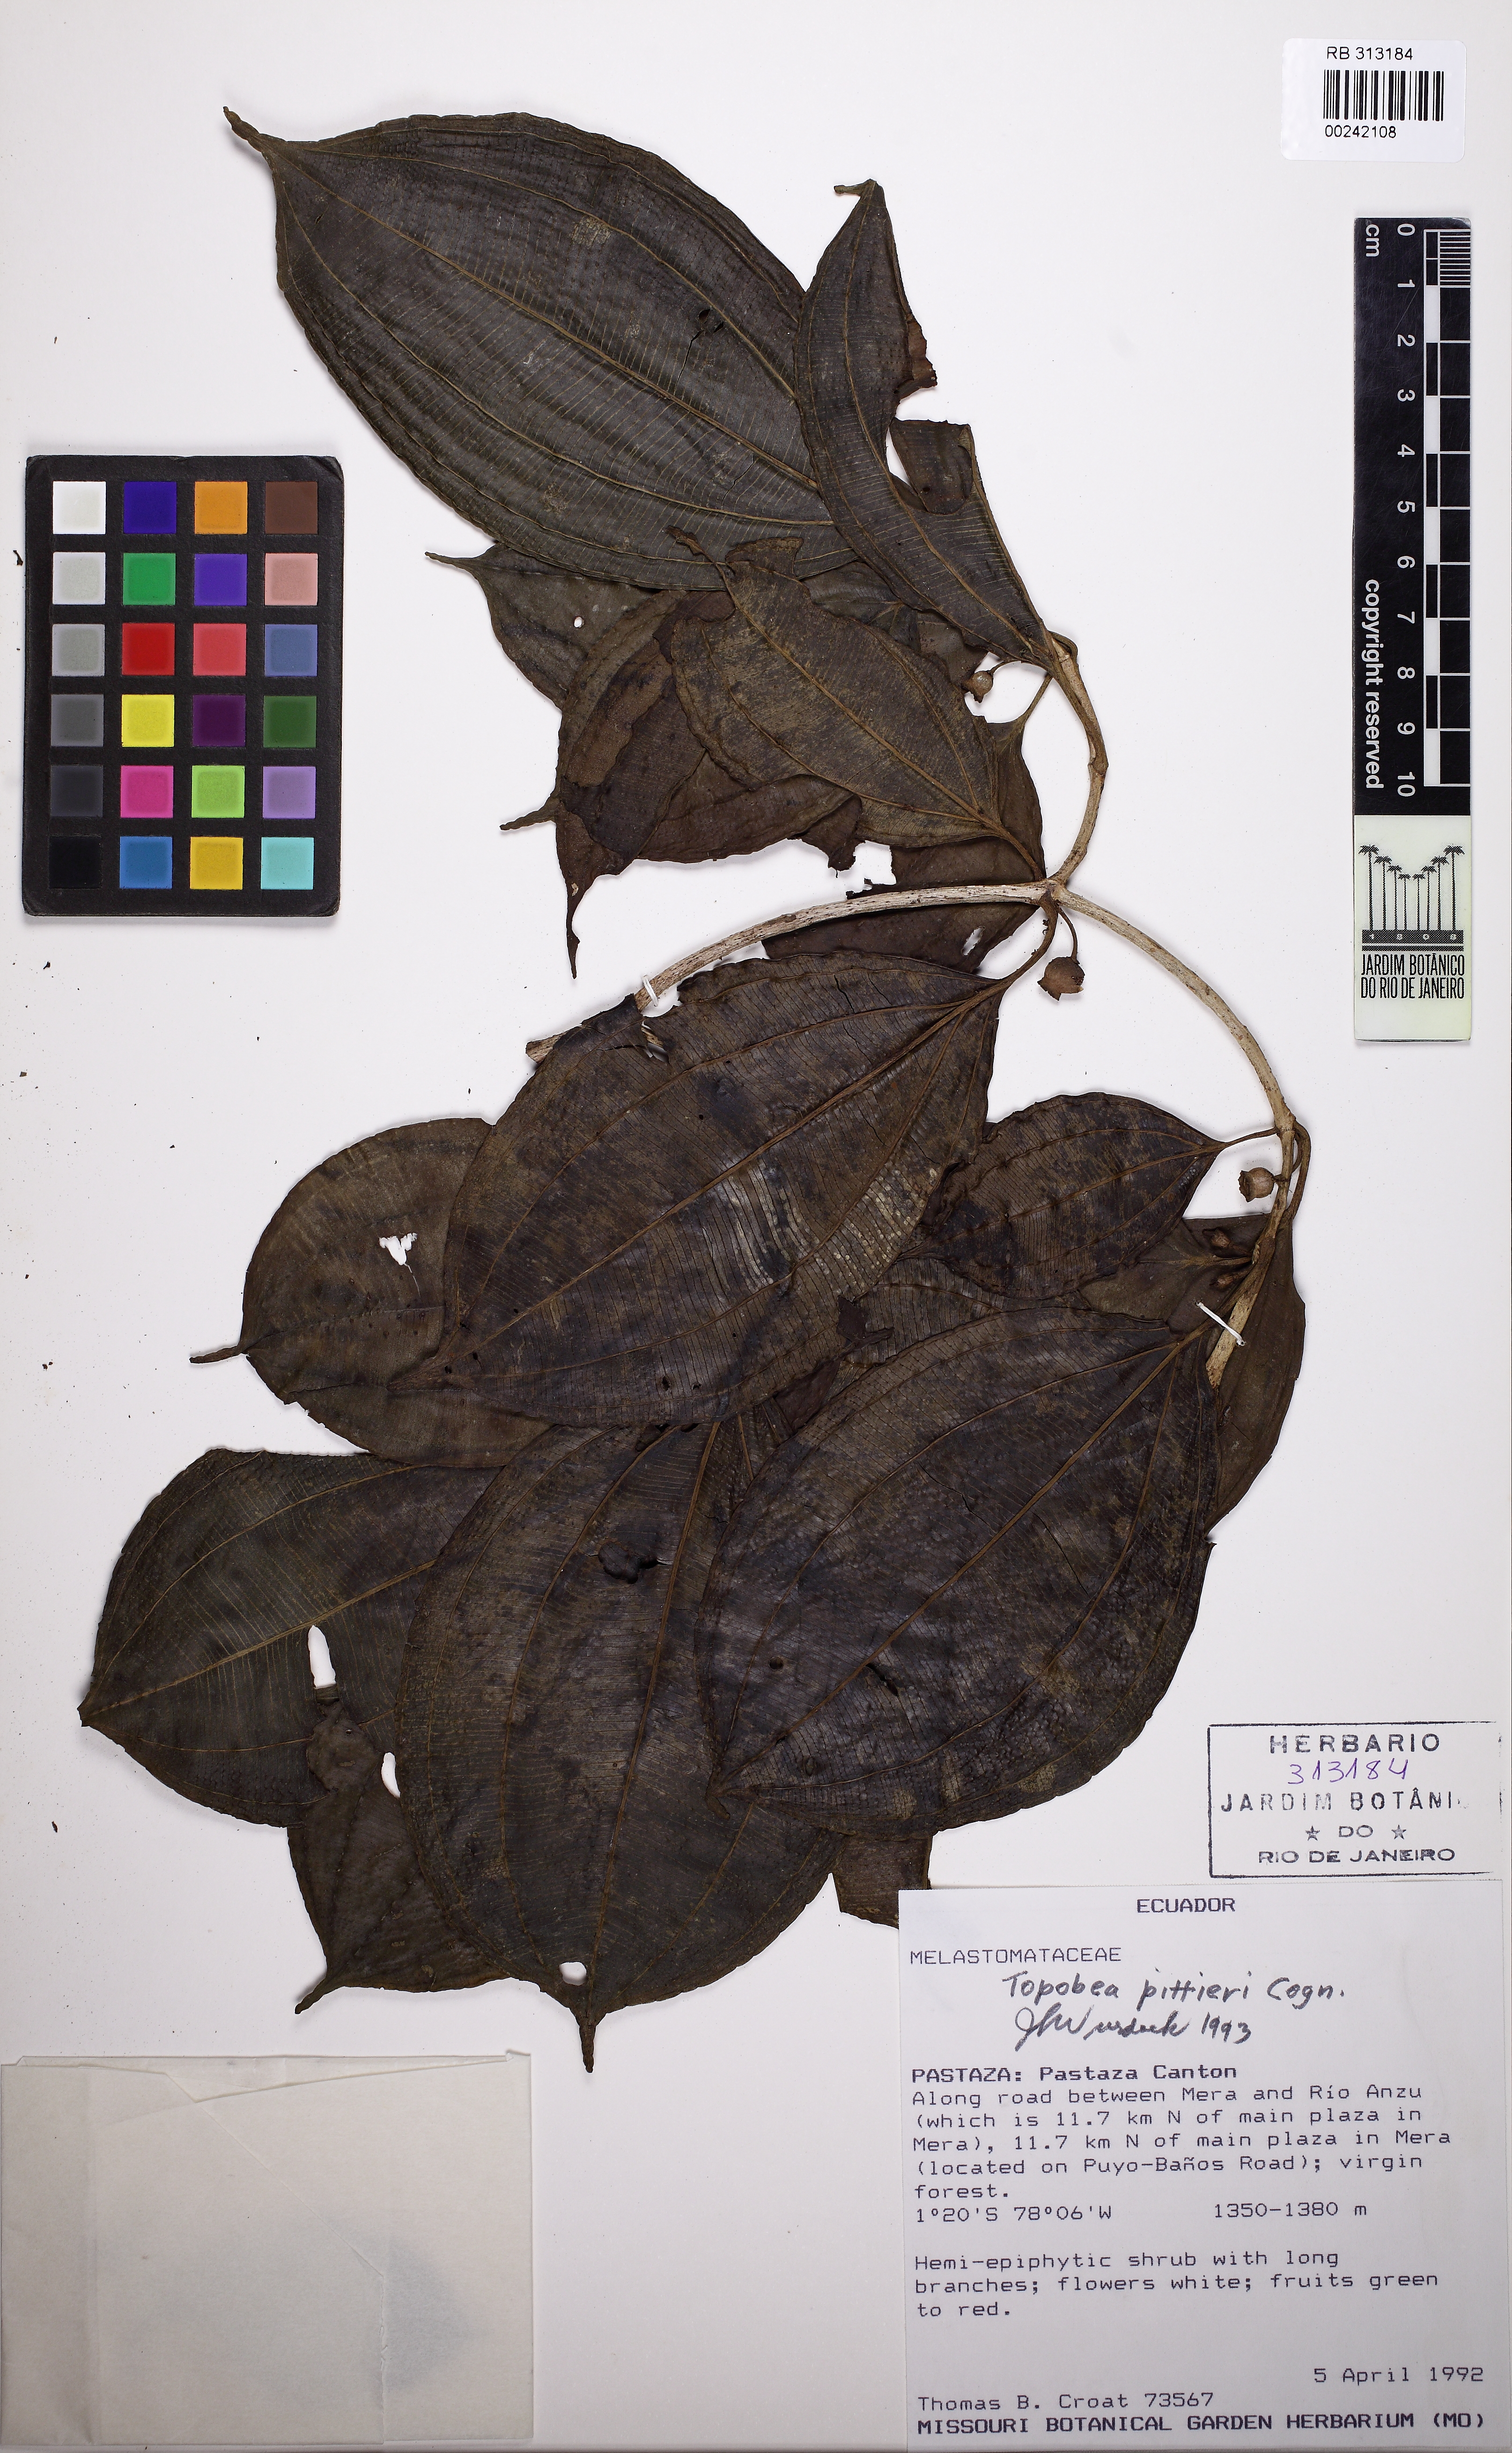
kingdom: Plantae
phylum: Tracheophyta
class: Magnoliopsida
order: Myrtales
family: Melastomataceae
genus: Blakea
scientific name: Blakea henripittieri
